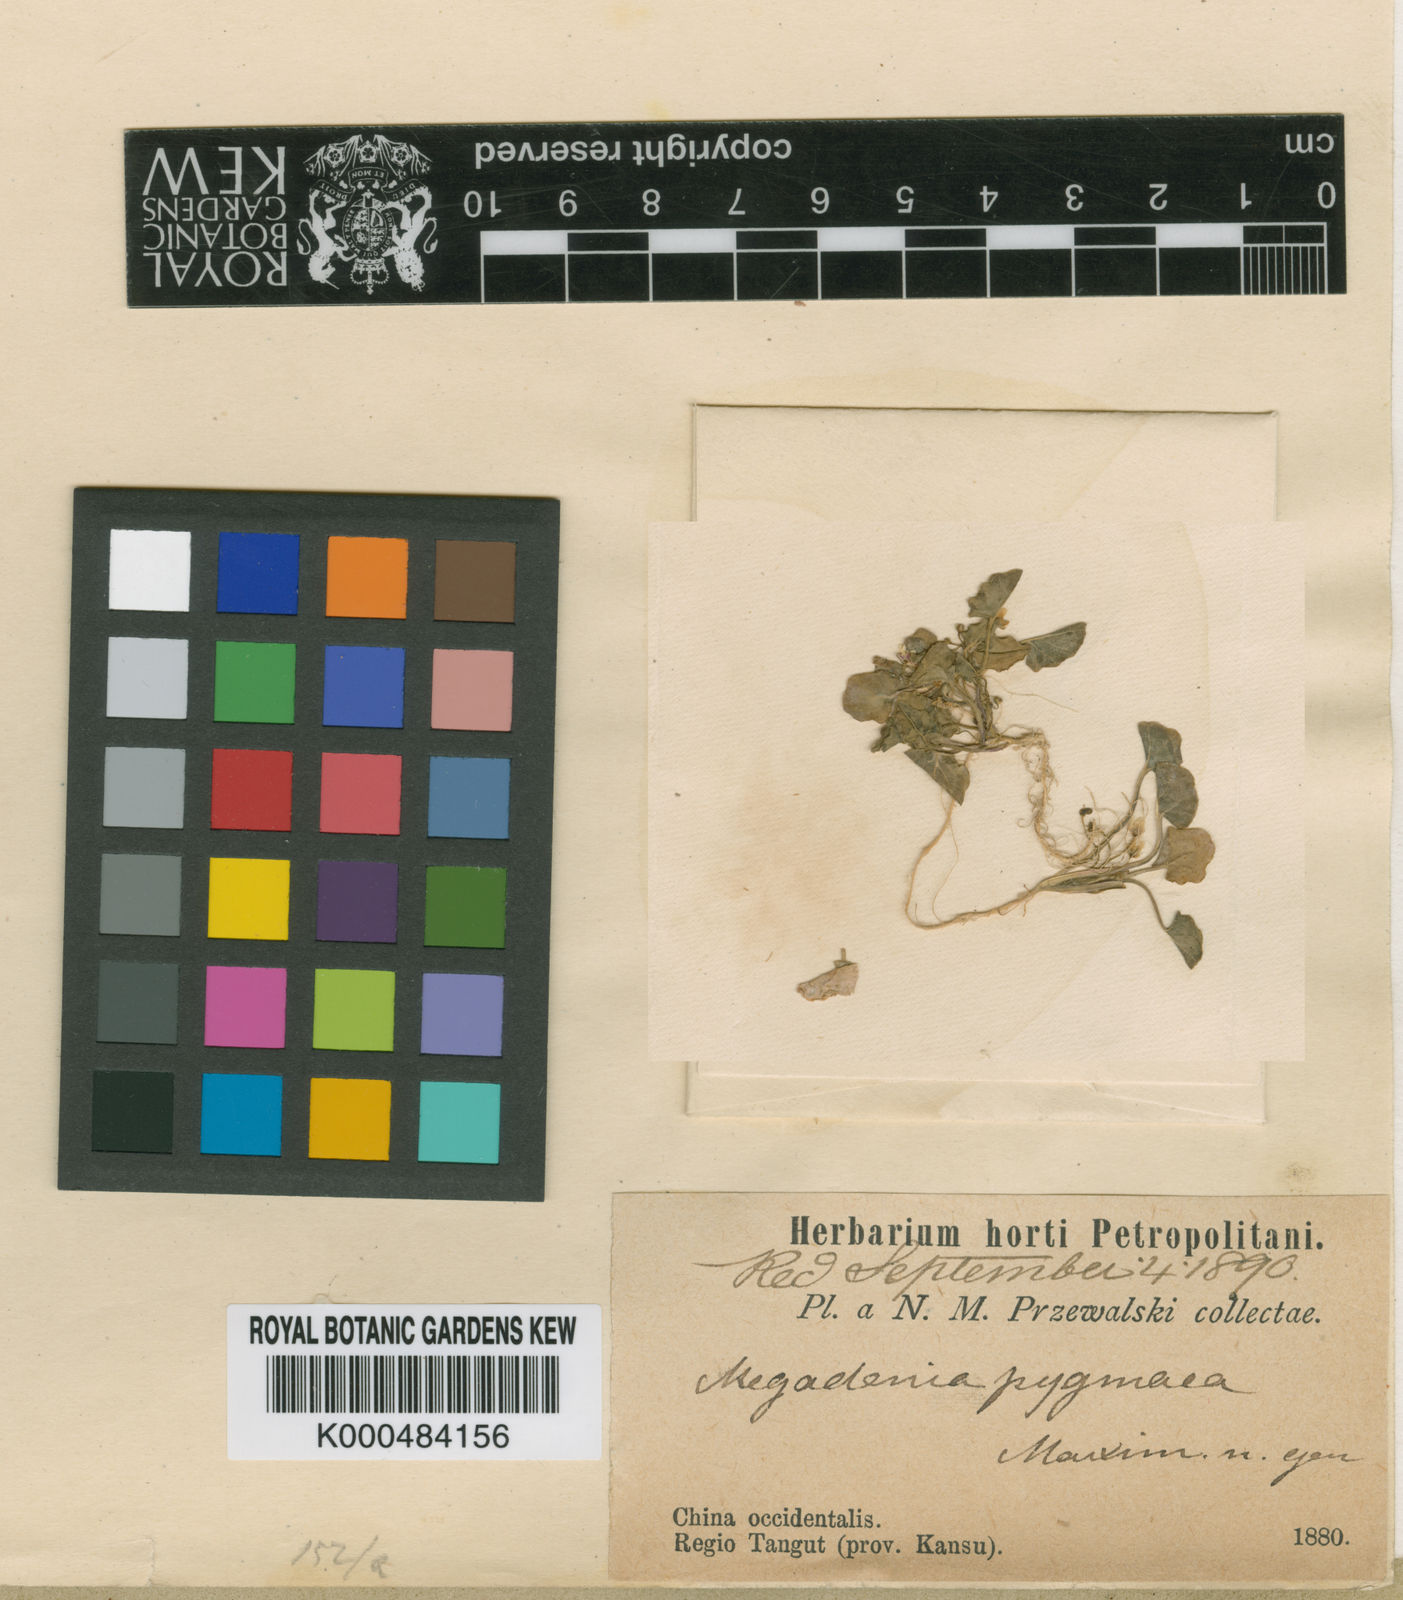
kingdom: Plantae
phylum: Tracheophyta
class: Magnoliopsida
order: Brassicales
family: Brassicaceae
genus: Megadenia
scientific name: Megadenia pygmaea
